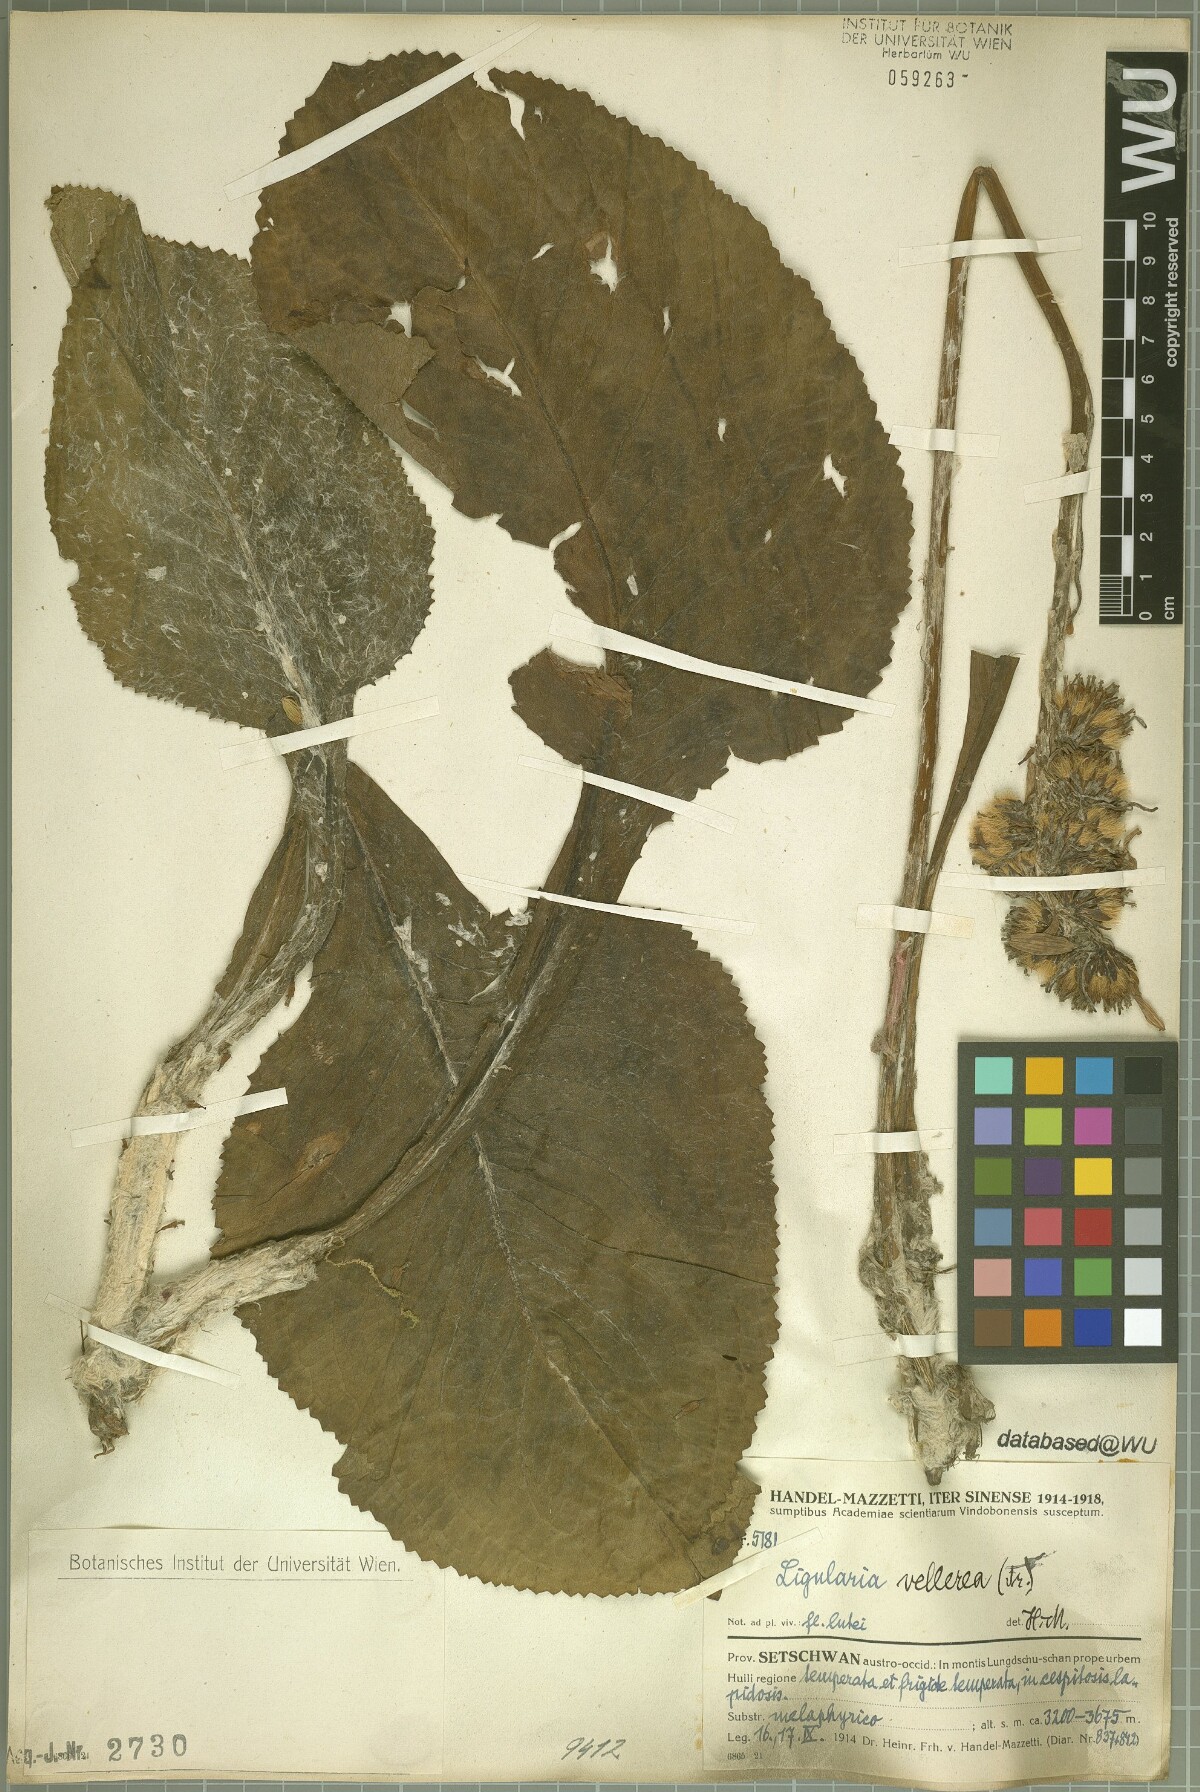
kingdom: Plantae
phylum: Tracheophyta
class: Magnoliopsida
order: Asterales
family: Asteraceae
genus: Ligularia
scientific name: Ligularia vellerea
